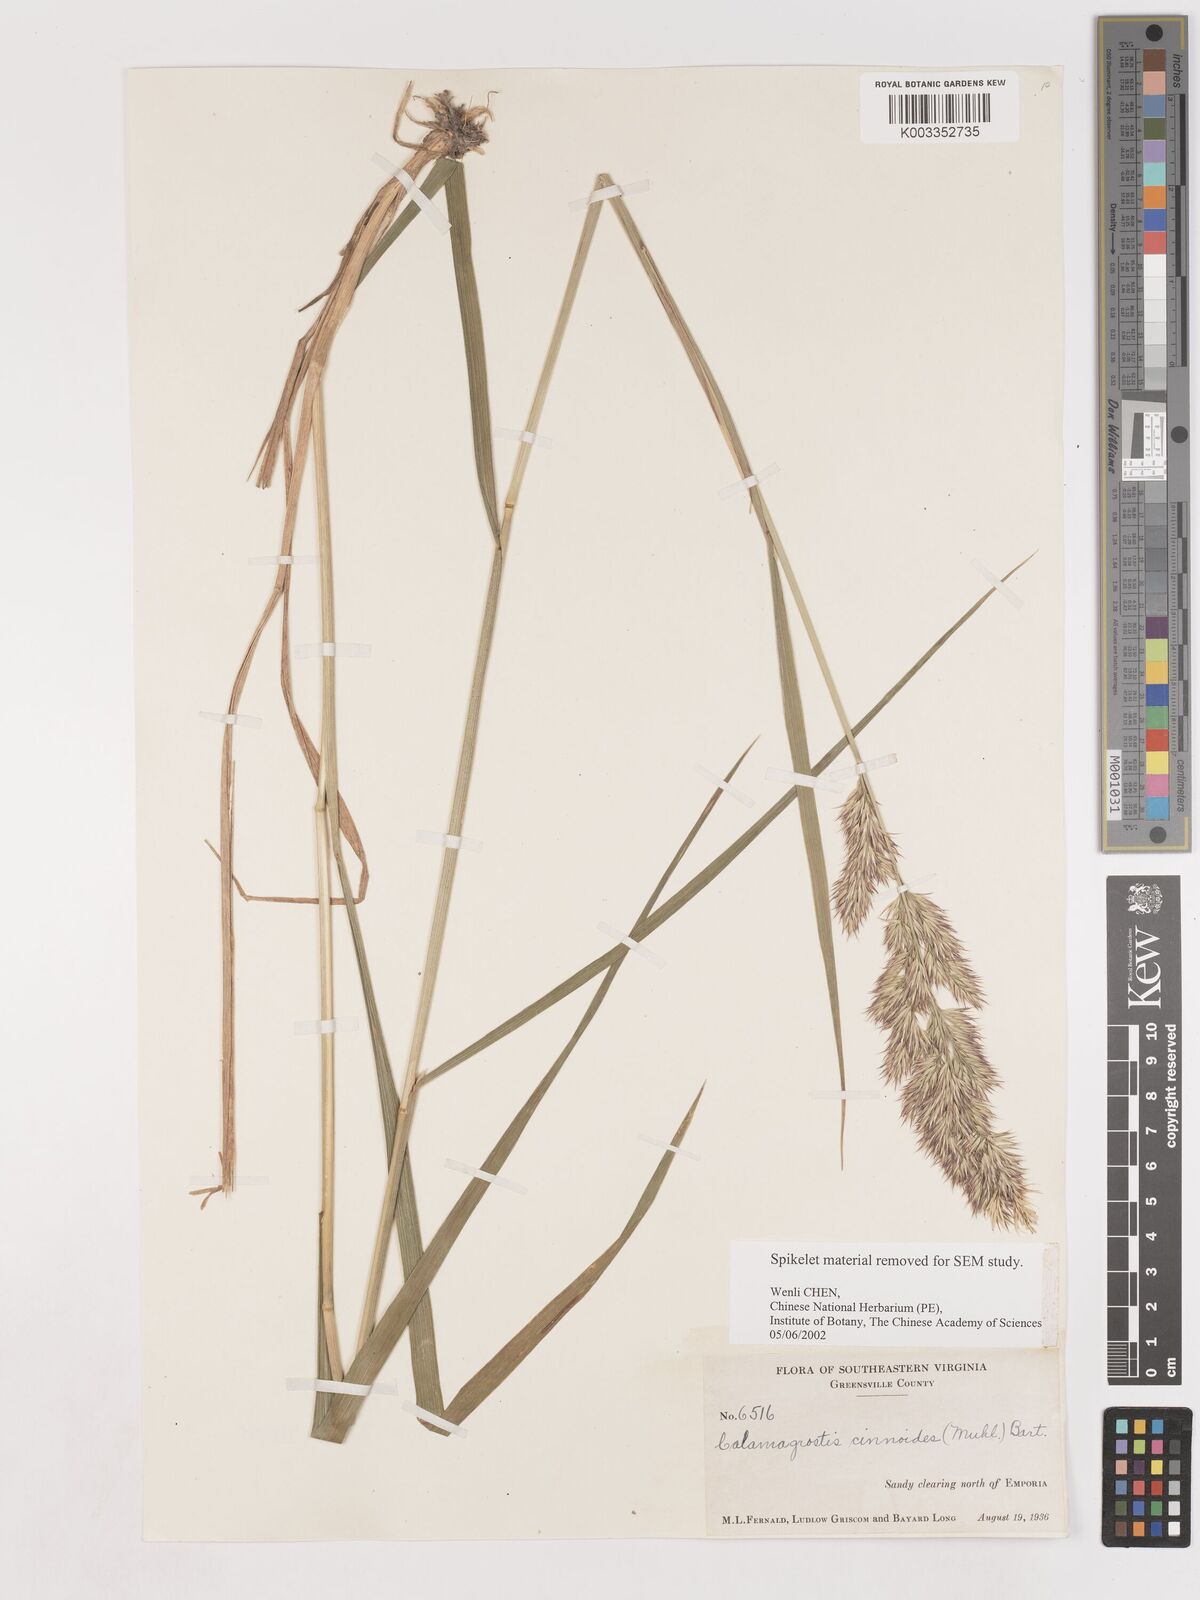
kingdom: Plantae
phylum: Tracheophyta
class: Liliopsida
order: Poales
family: Poaceae
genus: Calamagrostis
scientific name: Calamagrostis canadensis
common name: Canada bluejoint
